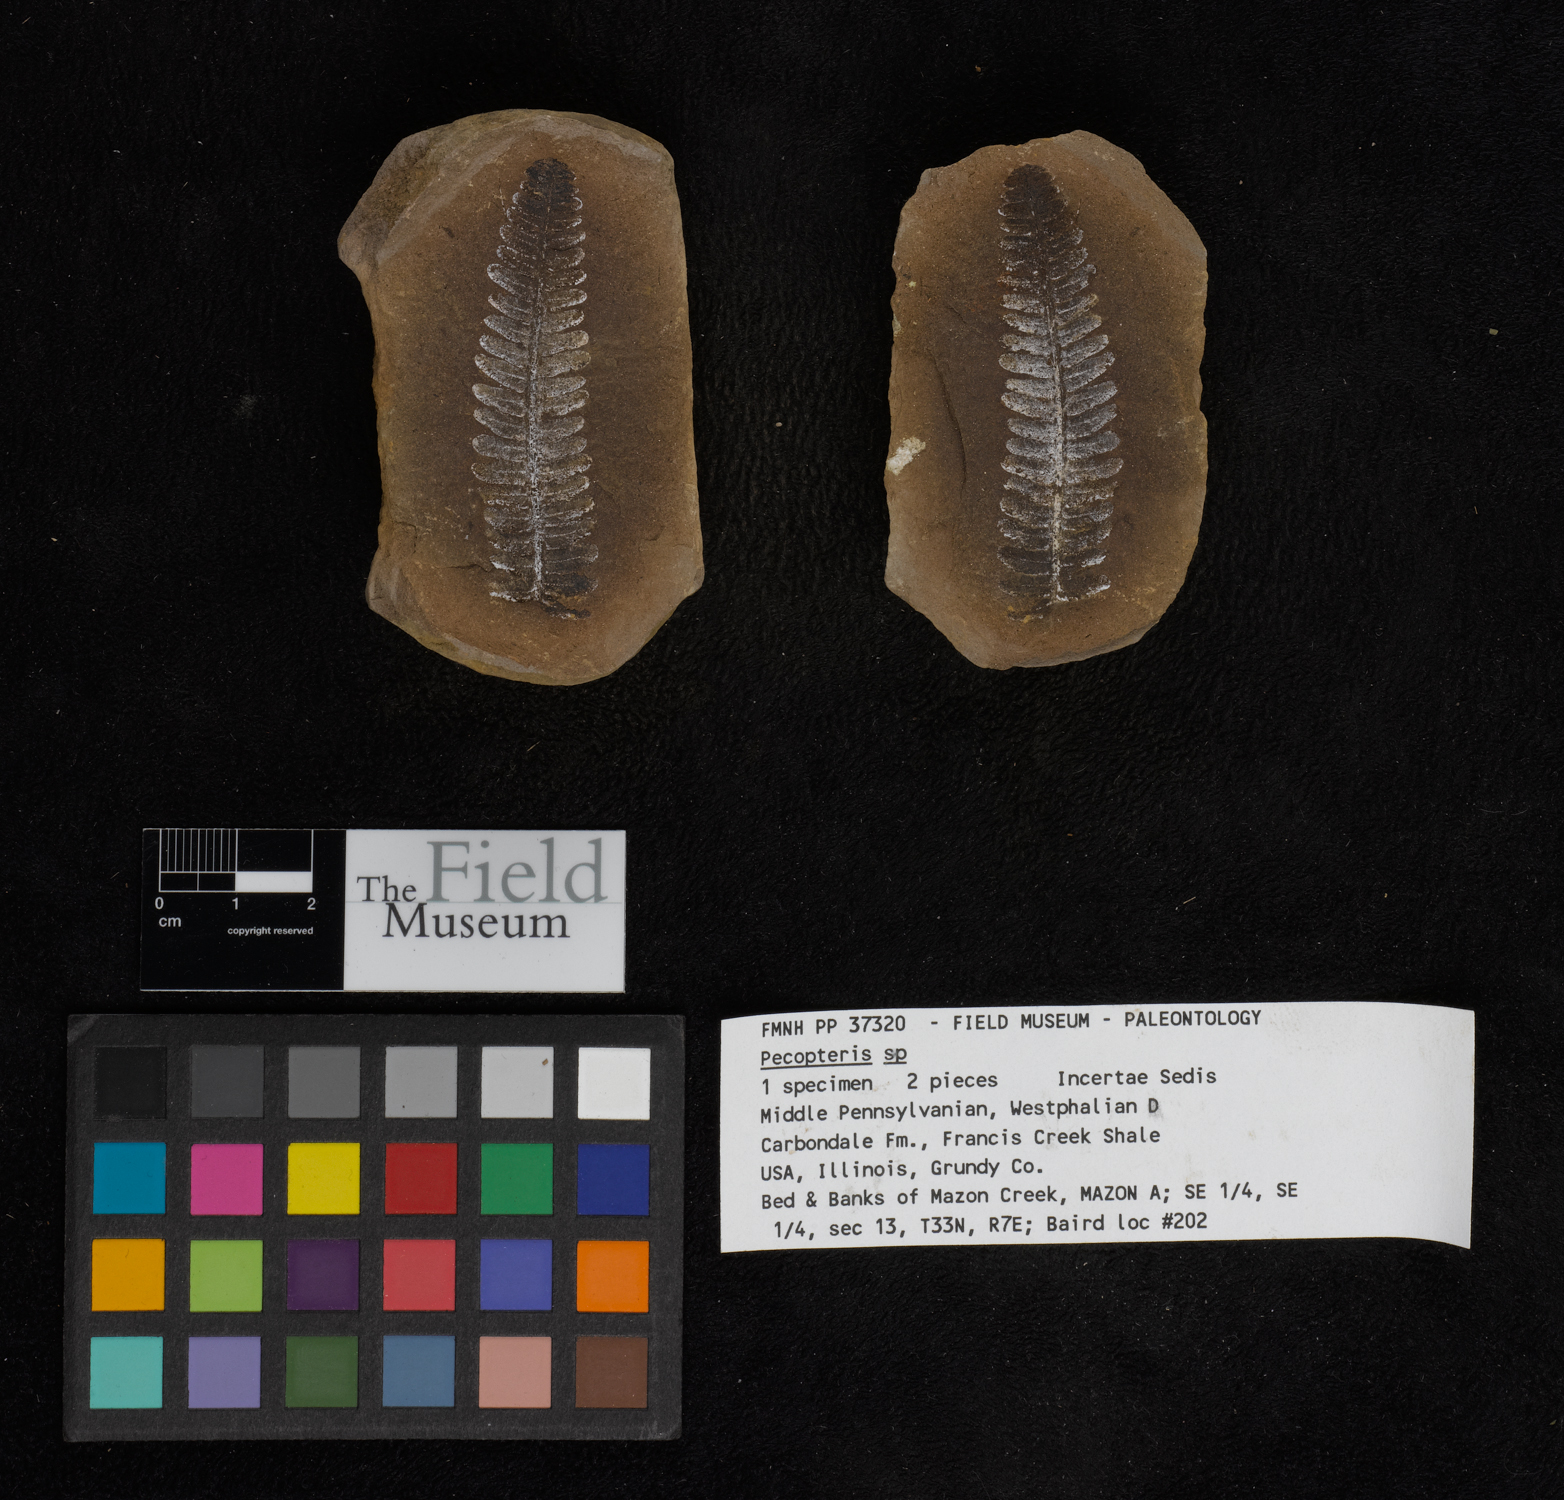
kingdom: Plantae
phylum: Tracheophyta
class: Polypodiopsida
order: Marattiales
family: Asterothecaceae
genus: Pecopteris
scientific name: Pecopteris
